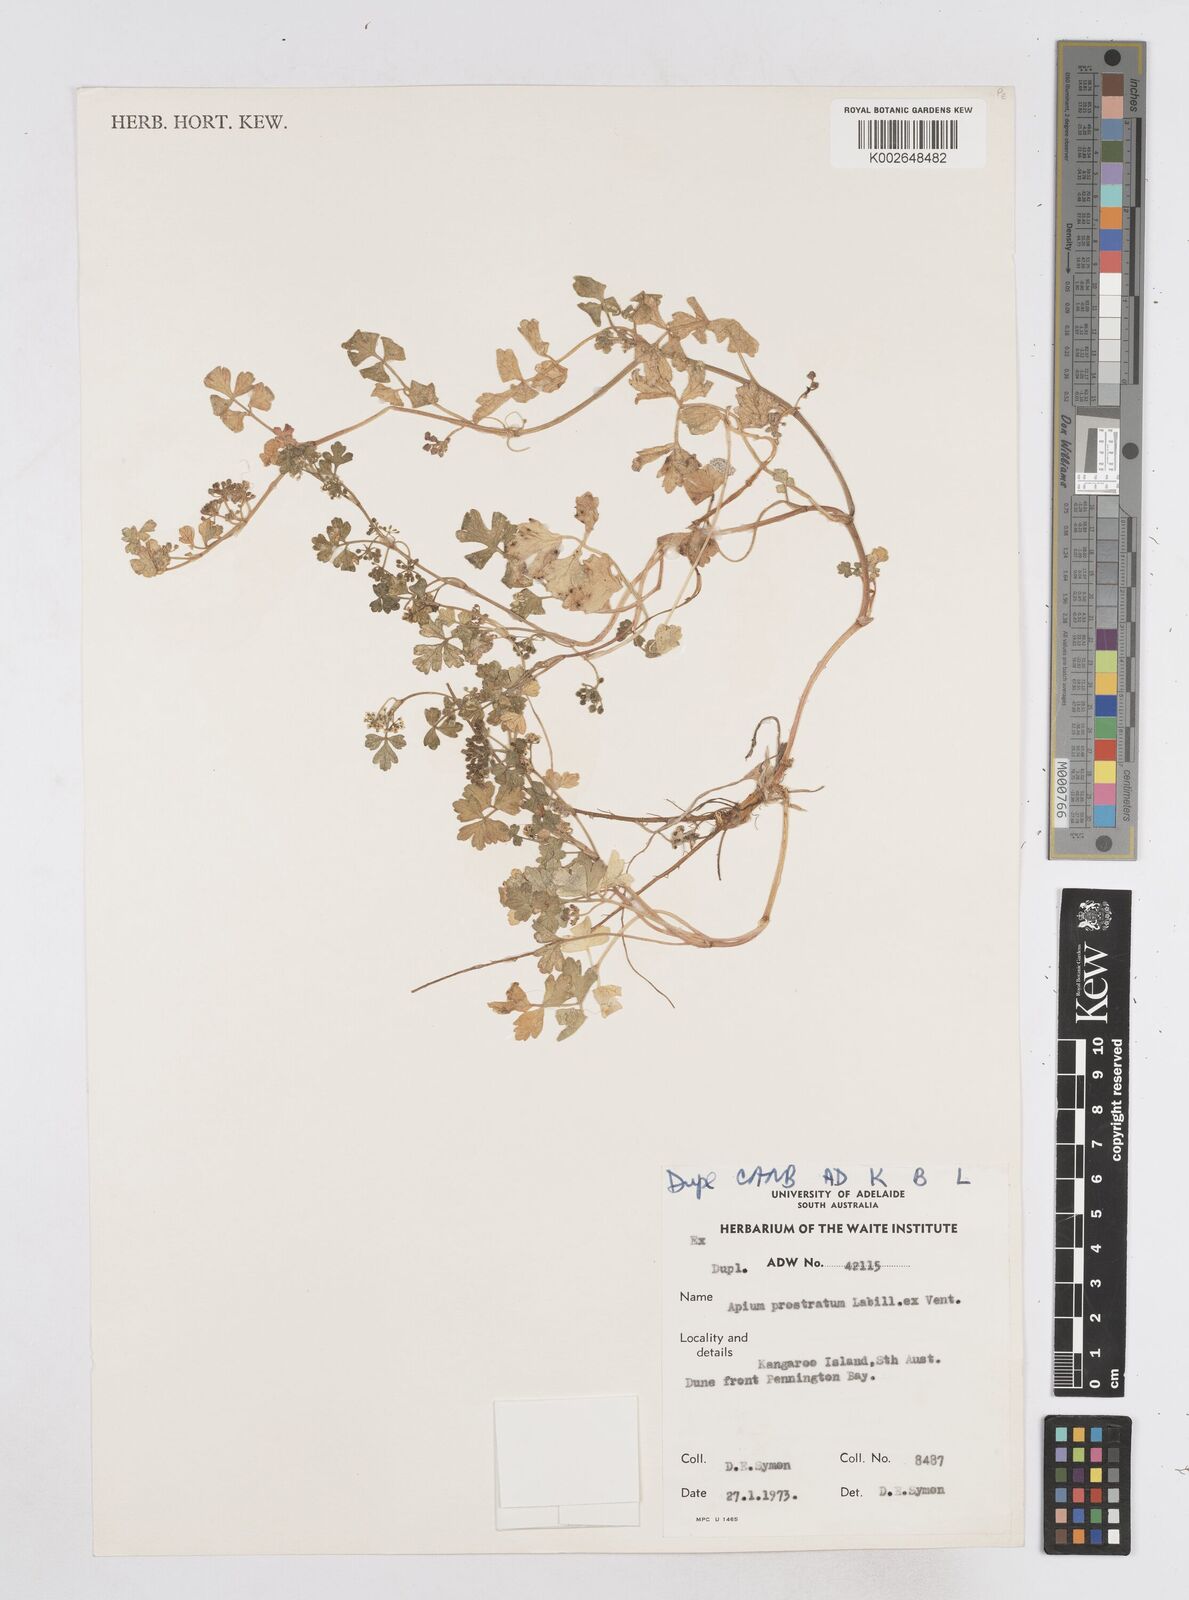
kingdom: Plantae
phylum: Tracheophyta
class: Magnoliopsida
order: Apiales
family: Apiaceae
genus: Apium
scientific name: Apium prostratum
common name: Prostrate marshwort
